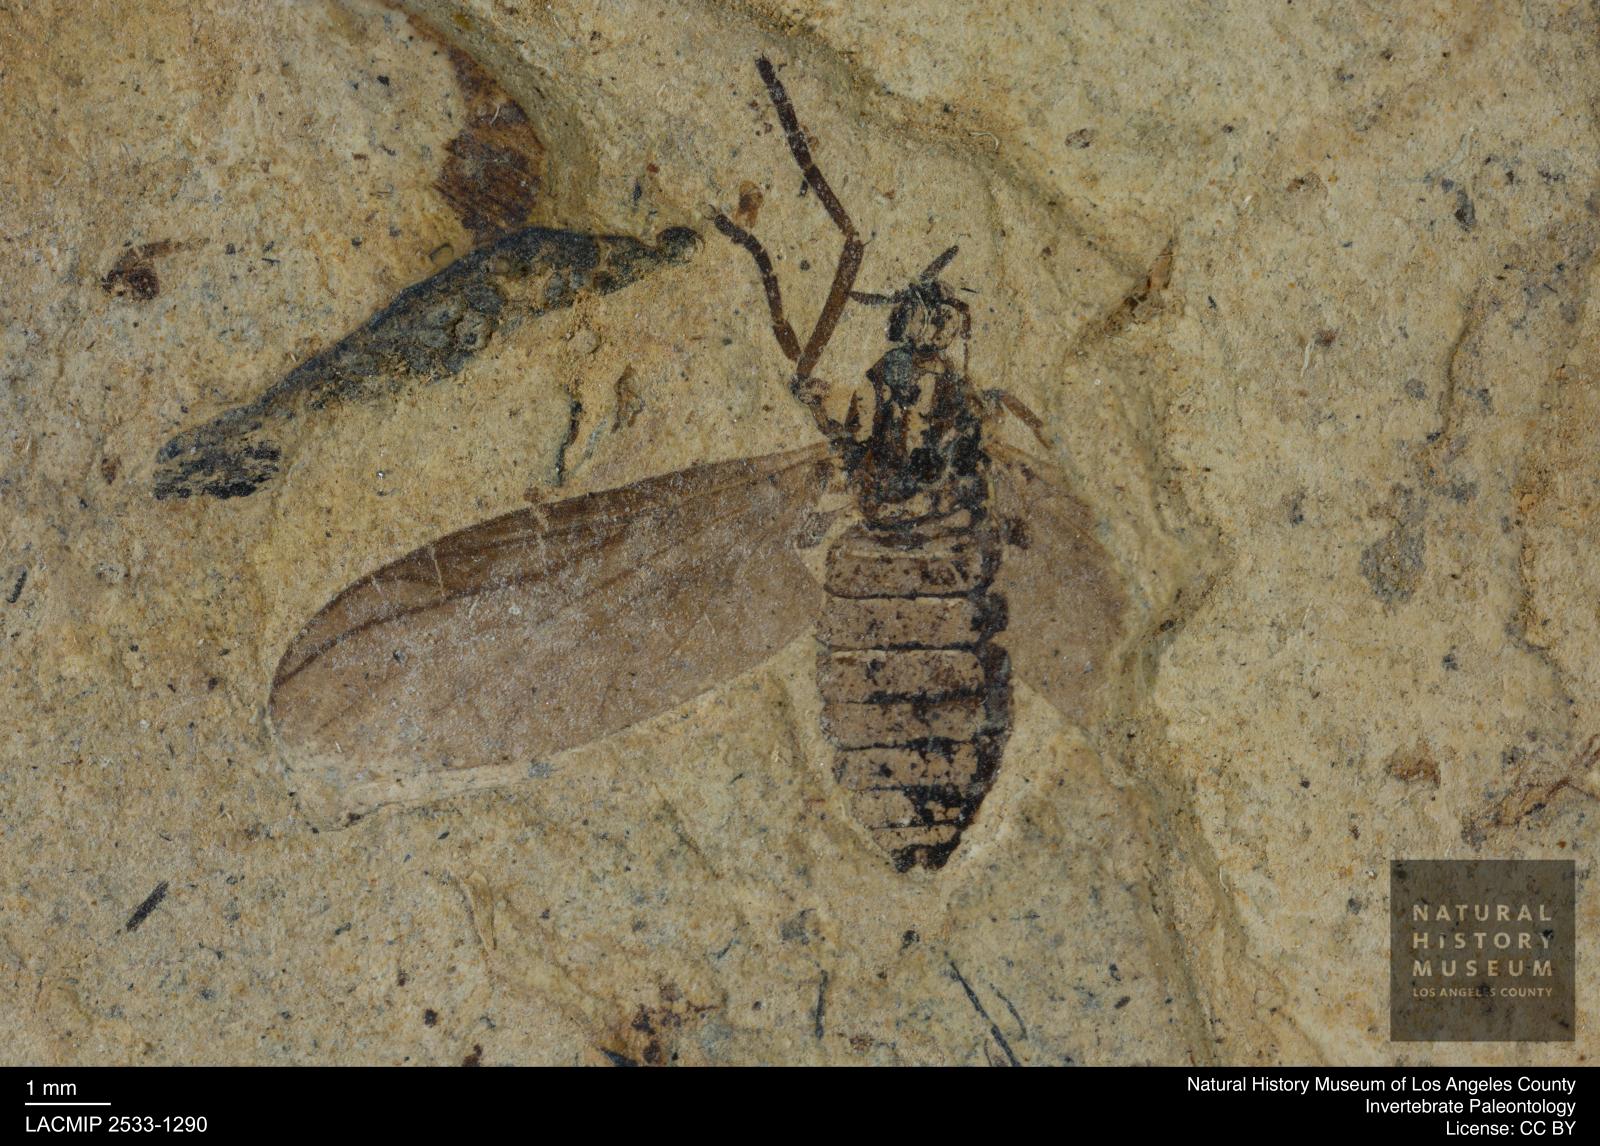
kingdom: Animalia
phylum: Arthropoda
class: Insecta
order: Diptera
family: Bibionidae
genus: Plecia
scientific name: Plecia grossa
